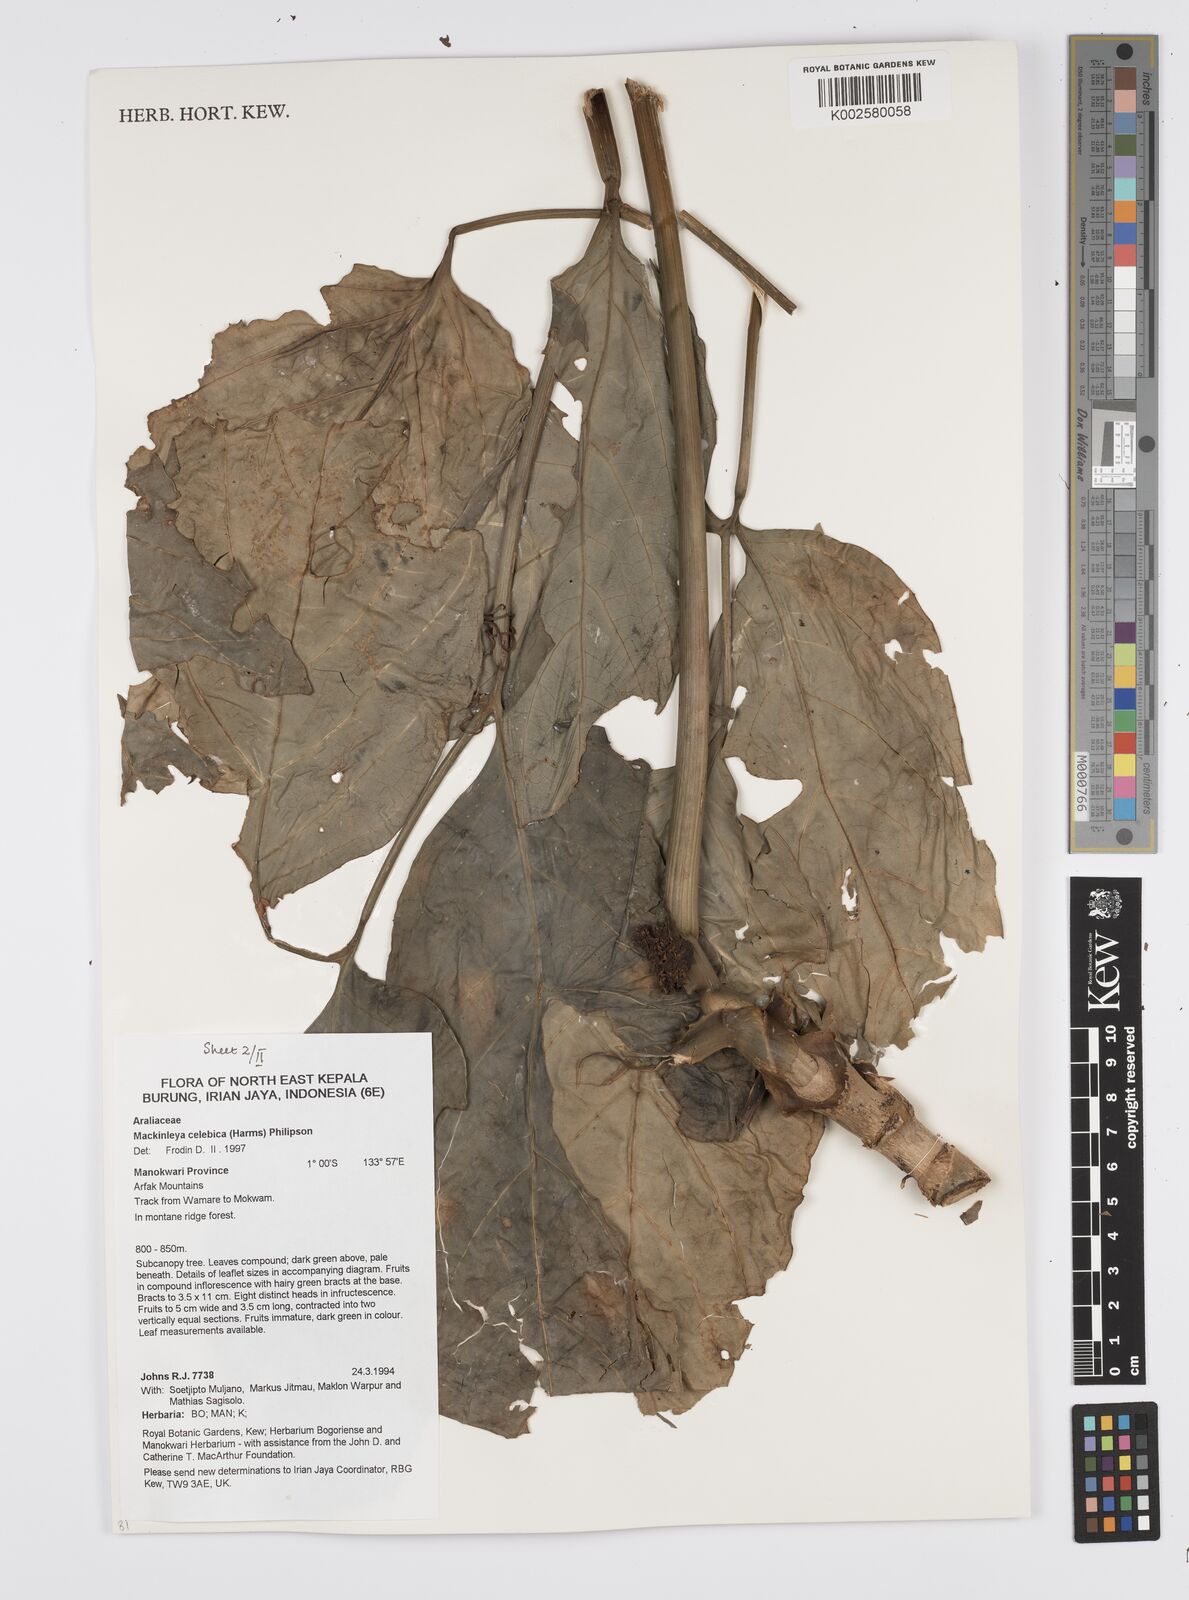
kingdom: Plantae
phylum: Tracheophyta
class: Magnoliopsida
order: Apiales
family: Apiaceae
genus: Mackinlaya
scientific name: Mackinlaya celebica
